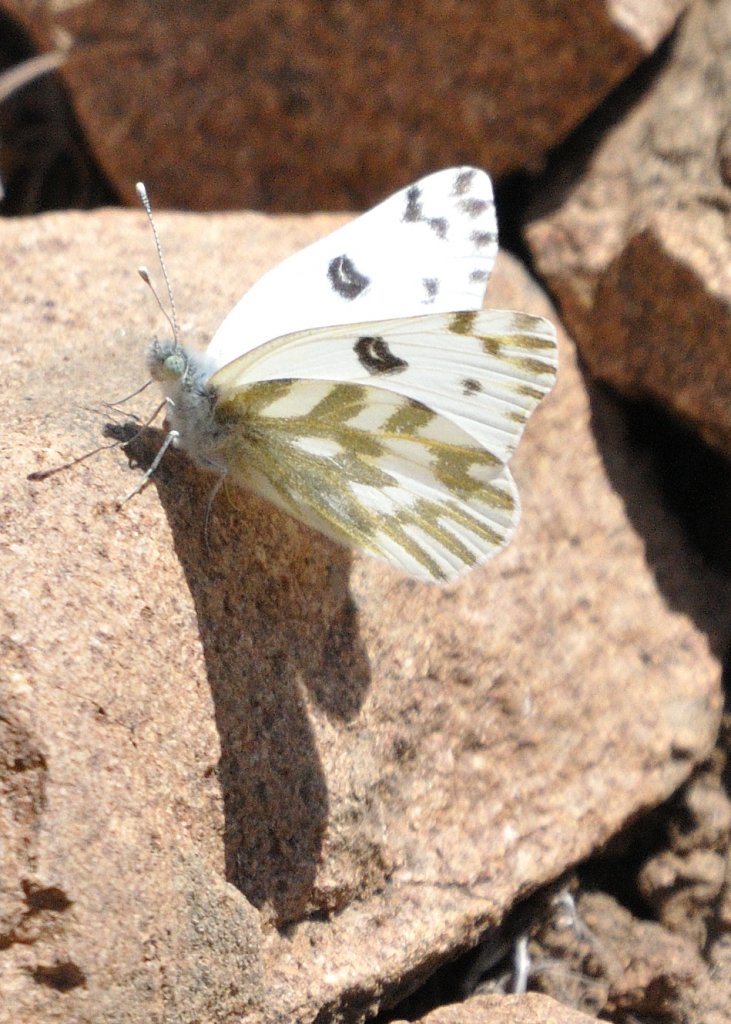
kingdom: Animalia
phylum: Arthropoda
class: Insecta
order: Lepidoptera
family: Pieridae
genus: Pontia
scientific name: Pontia beckerii
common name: Becker's White
